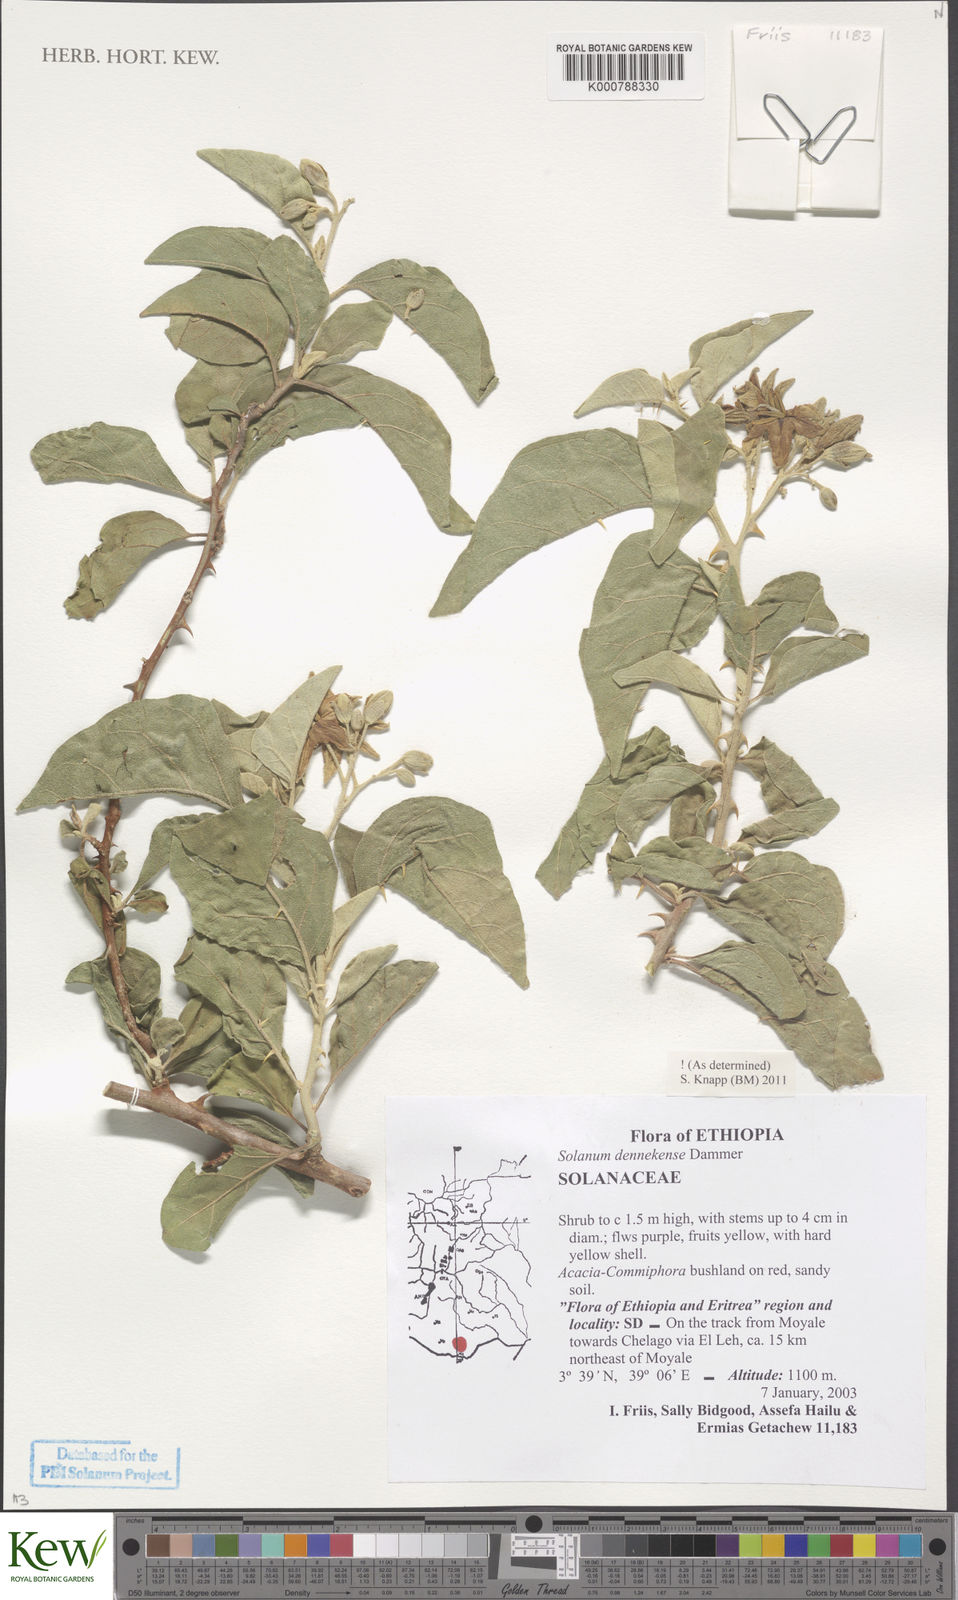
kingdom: Plantae
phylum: Tracheophyta
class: Magnoliopsida
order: Solanales
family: Solanaceae
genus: Solanum
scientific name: Solanum dennekense
